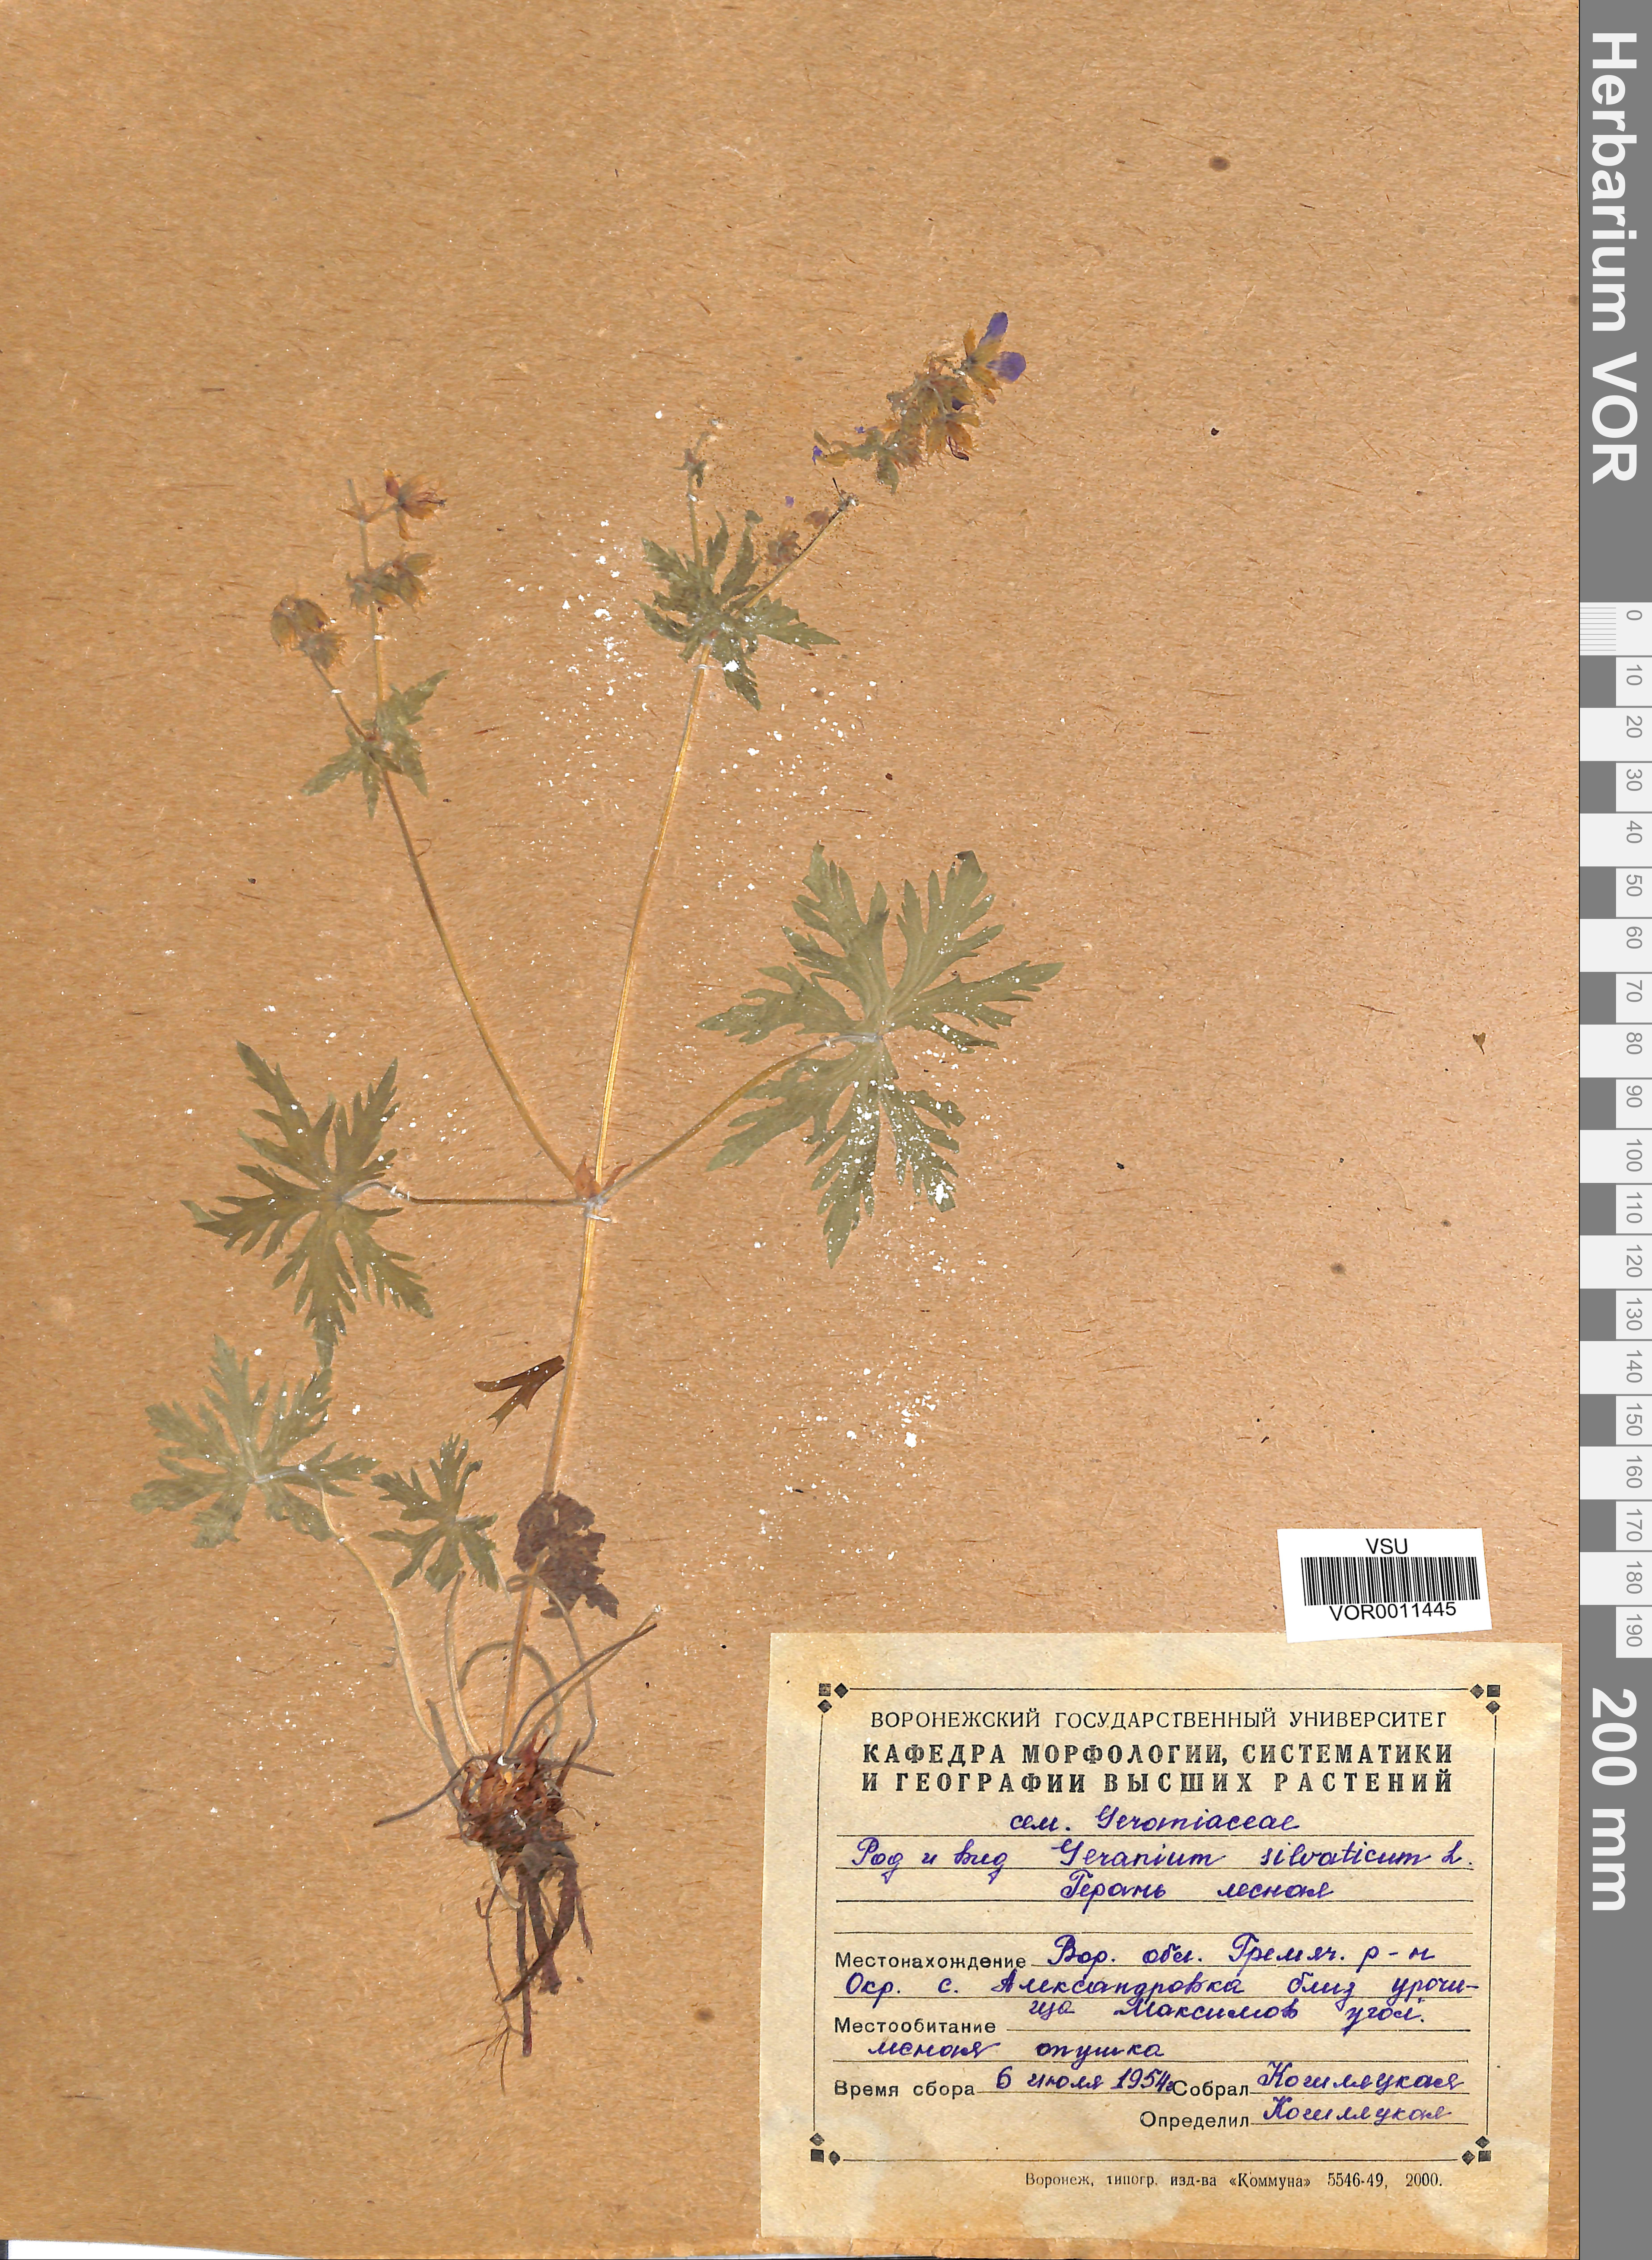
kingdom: Plantae
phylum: Tracheophyta
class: Magnoliopsida
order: Geraniales
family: Geraniaceae
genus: Geranium
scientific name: Geranium sibiricum
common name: Siberian crane's-bill
